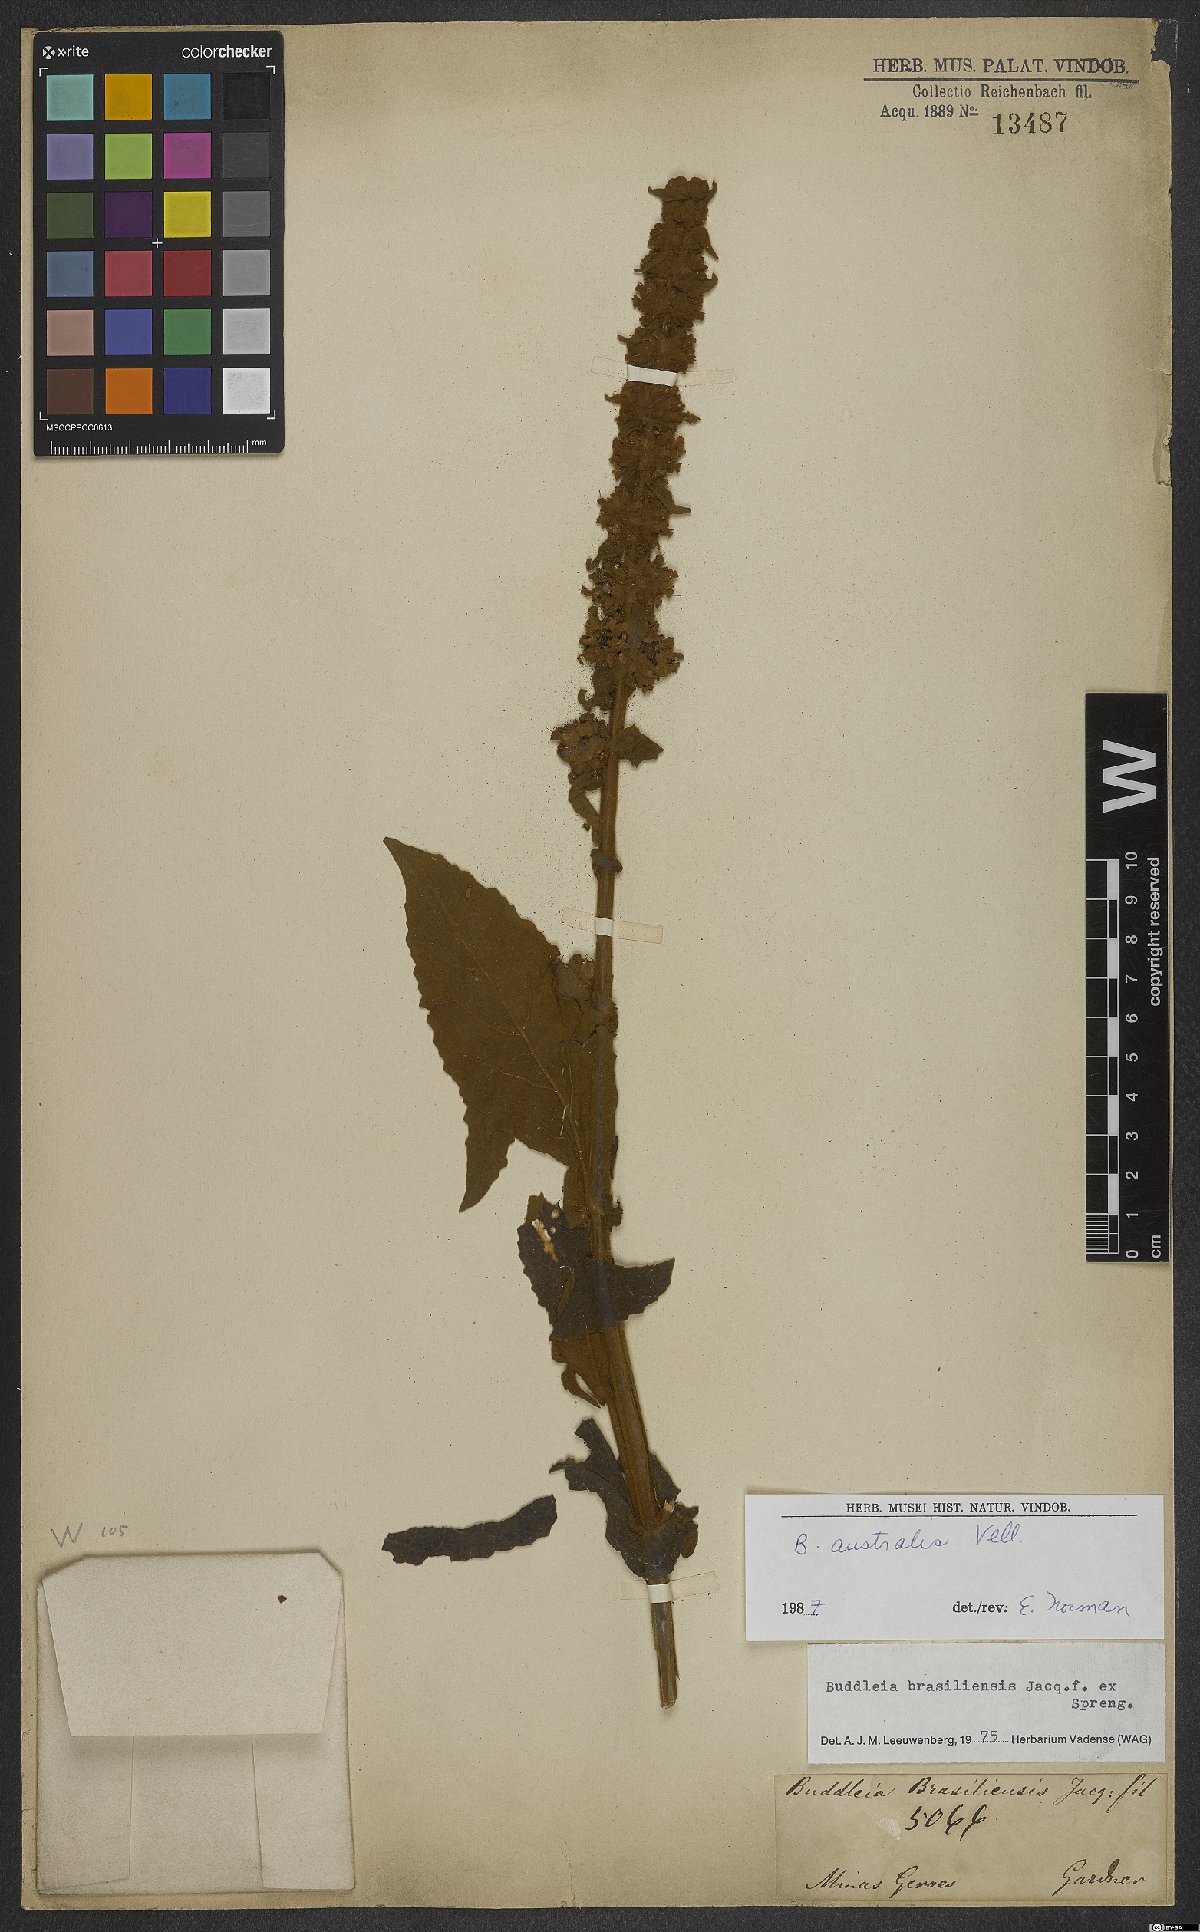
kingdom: Plantae
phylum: Tracheophyta
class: Magnoliopsida
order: Lamiales
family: Scrophulariaceae
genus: Buddleja
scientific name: Buddleja stachyoides
